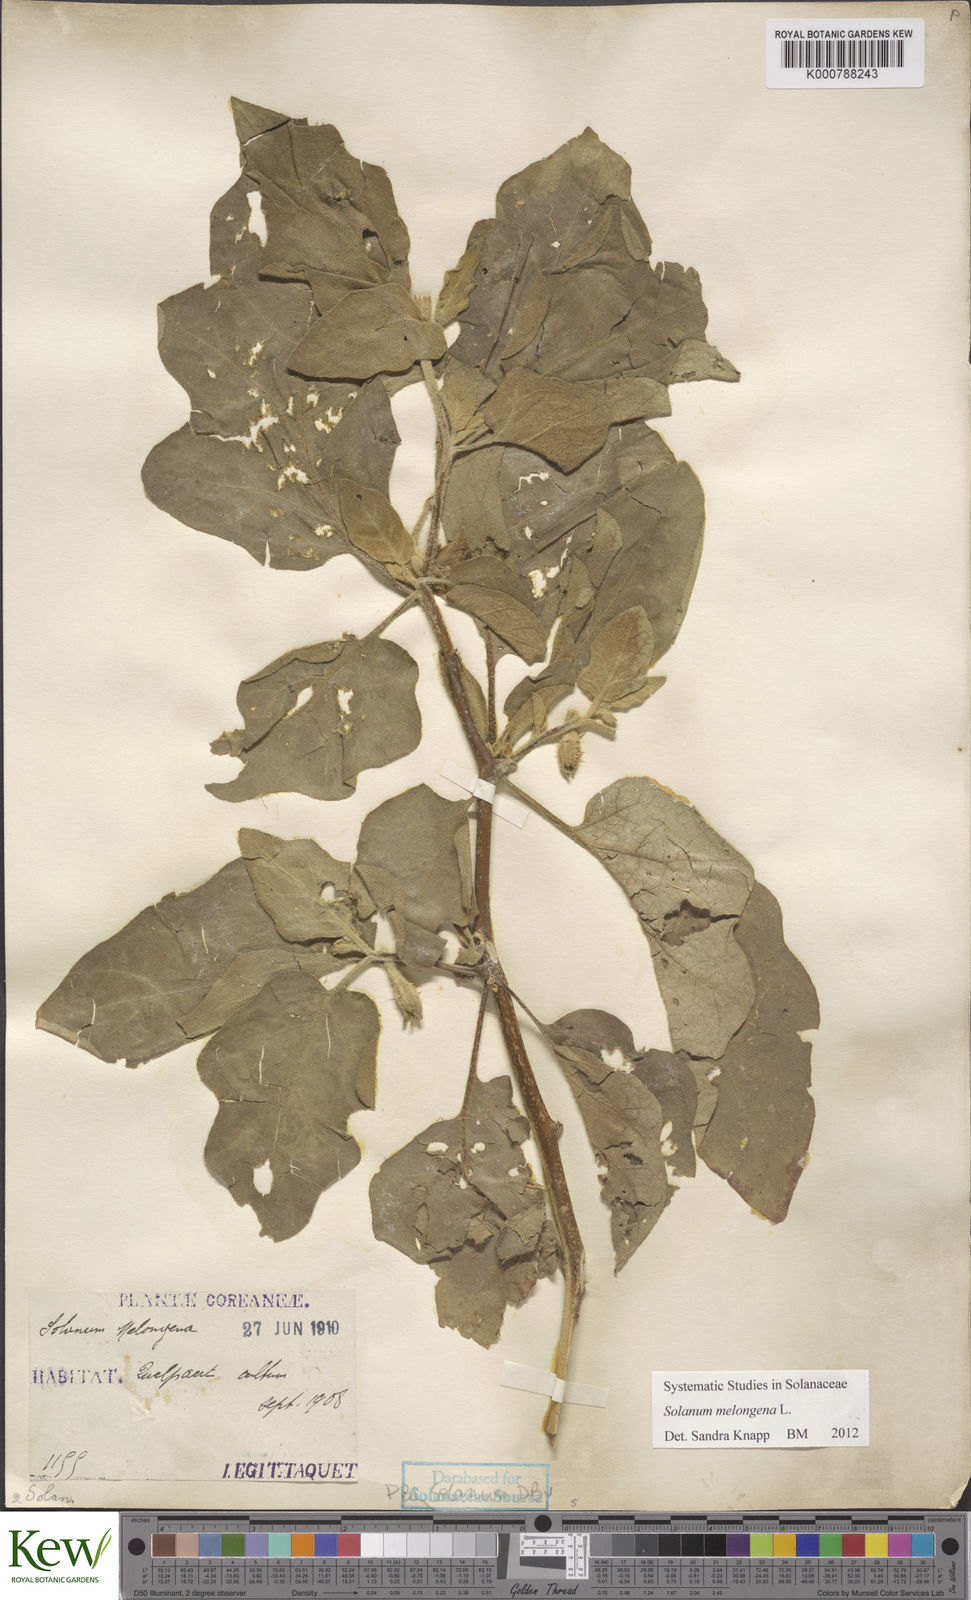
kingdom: Plantae
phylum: Tracheophyta
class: Magnoliopsida
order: Solanales
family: Solanaceae
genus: Solanum
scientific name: Solanum melongena
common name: Eggplant
